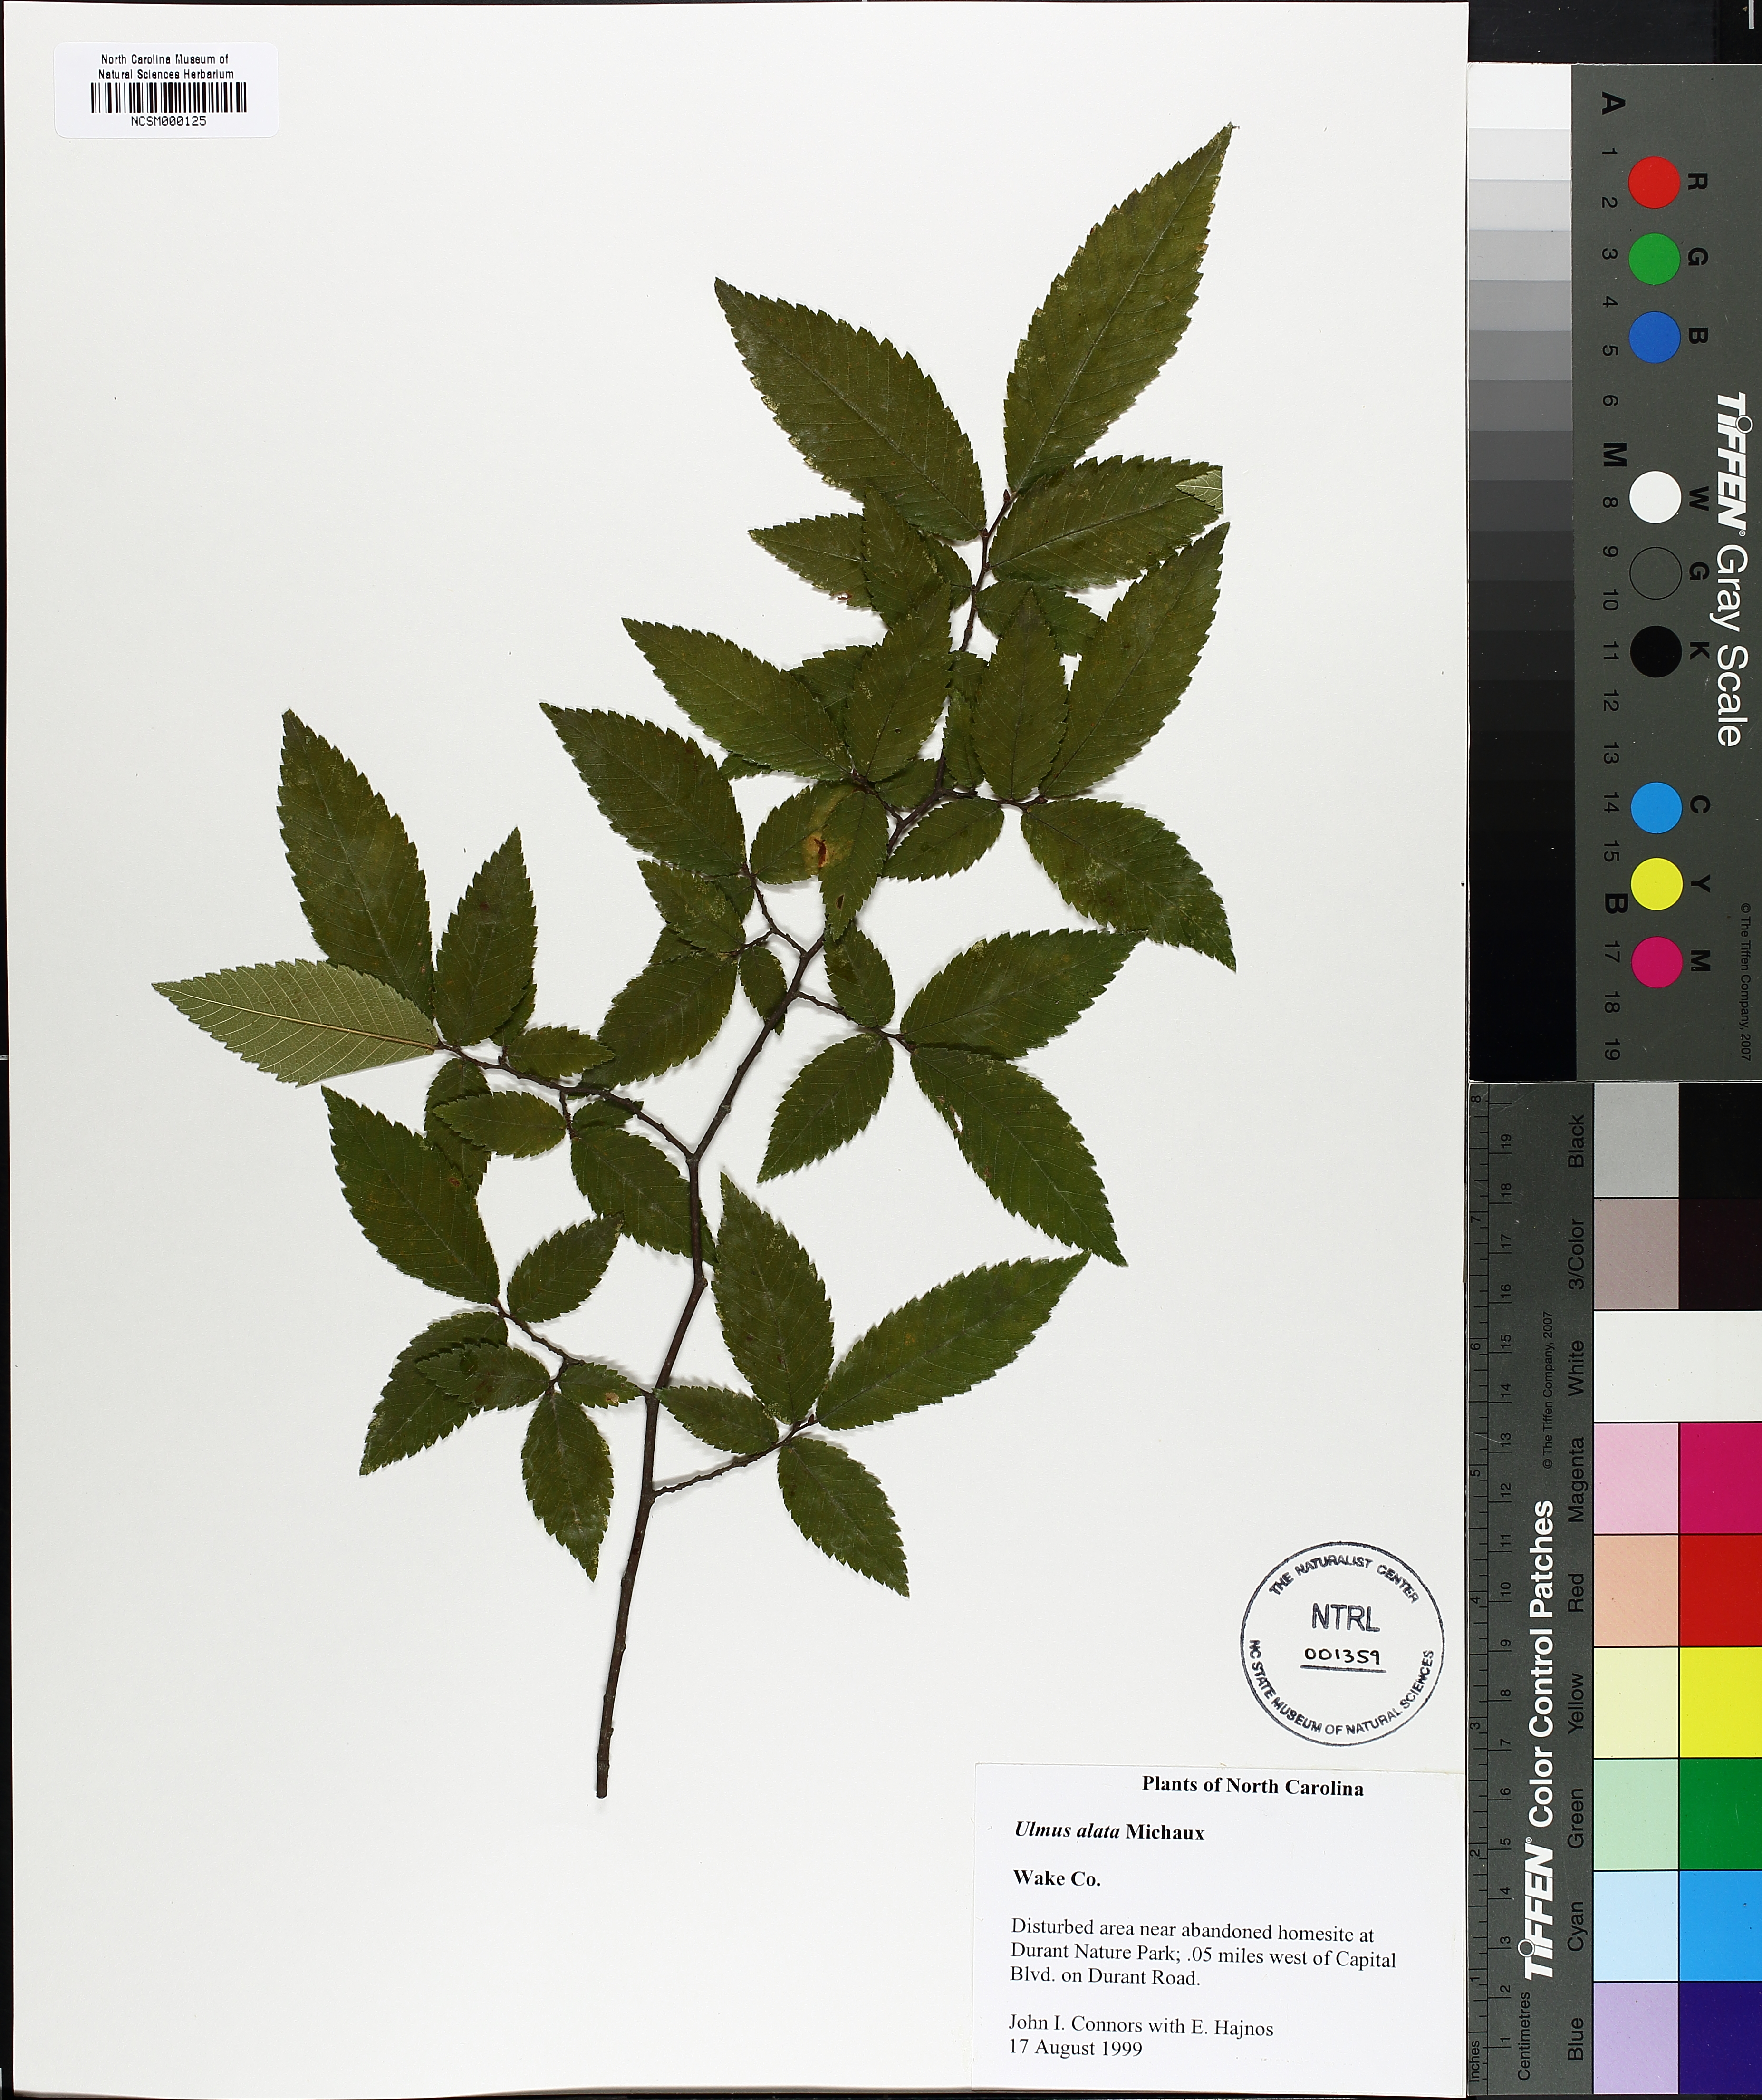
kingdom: Plantae
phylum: Tracheophyta
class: Magnoliopsida
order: Rosales
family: Ulmaceae
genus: Ulmus
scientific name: Ulmus alata
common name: Winged elm
